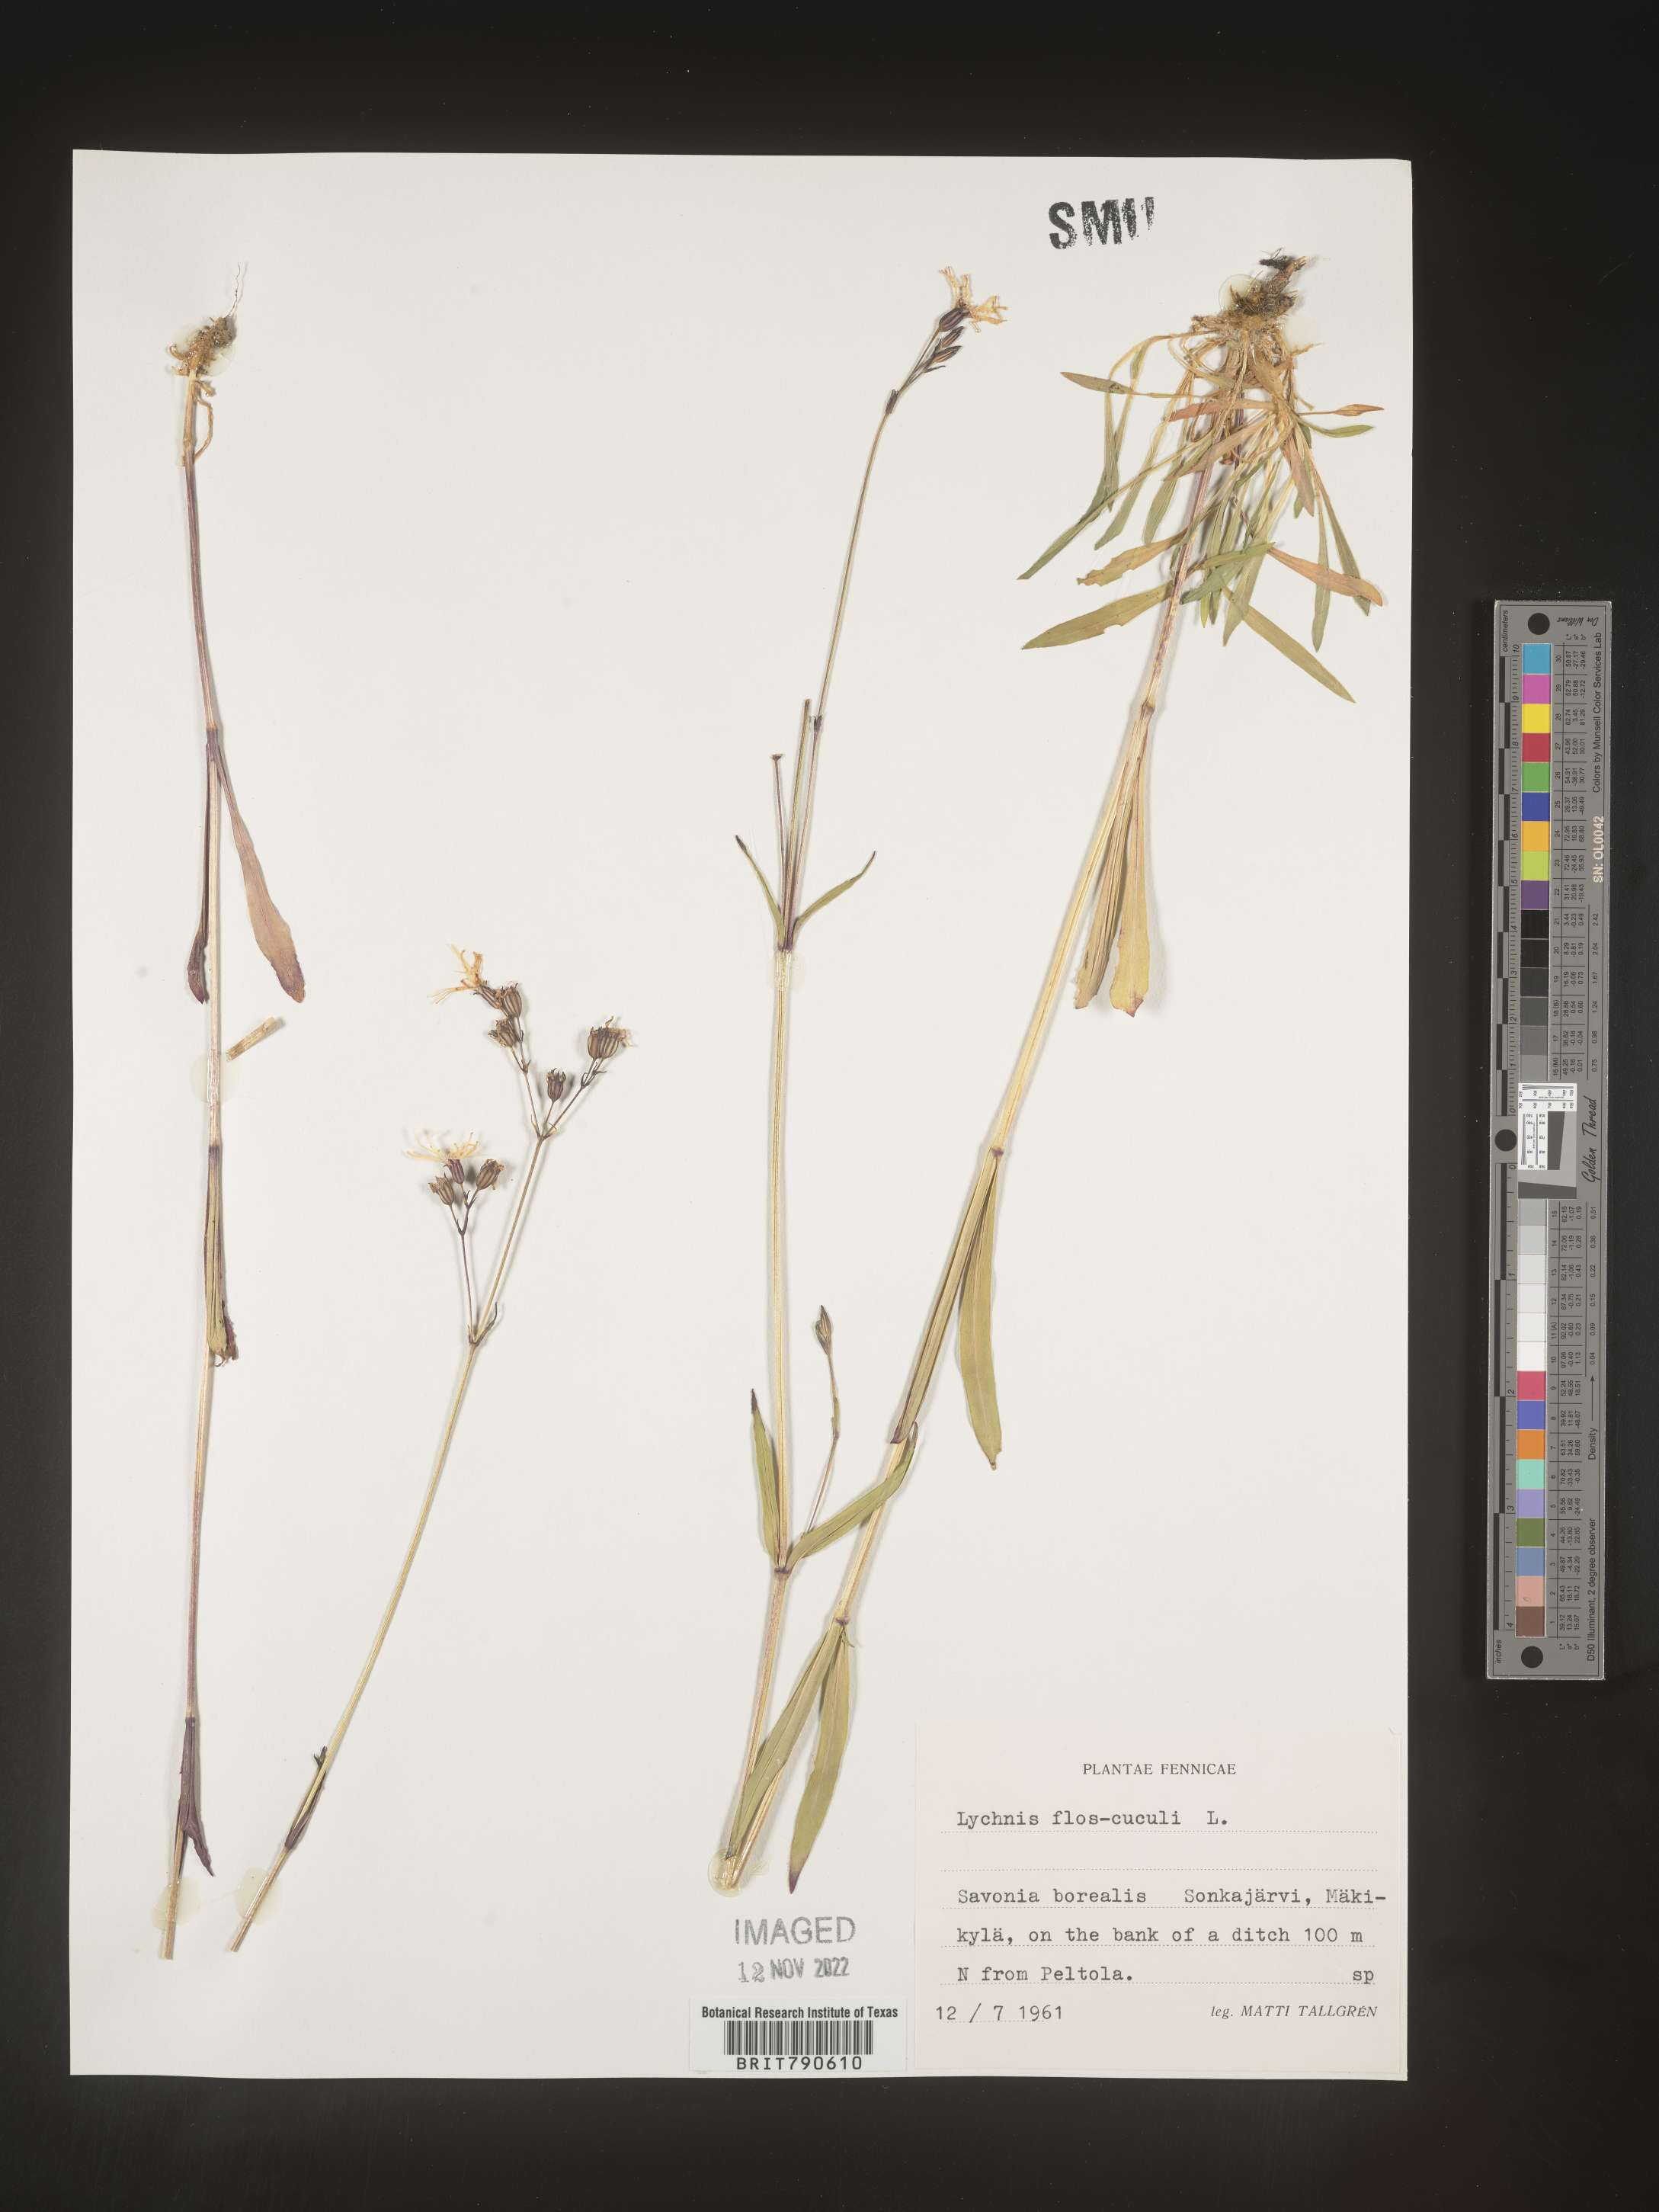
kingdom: Plantae
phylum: Tracheophyta
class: Magnoliopsida
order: Caryophyllales
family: Caryophyllaceae
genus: Silene
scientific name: Silene
